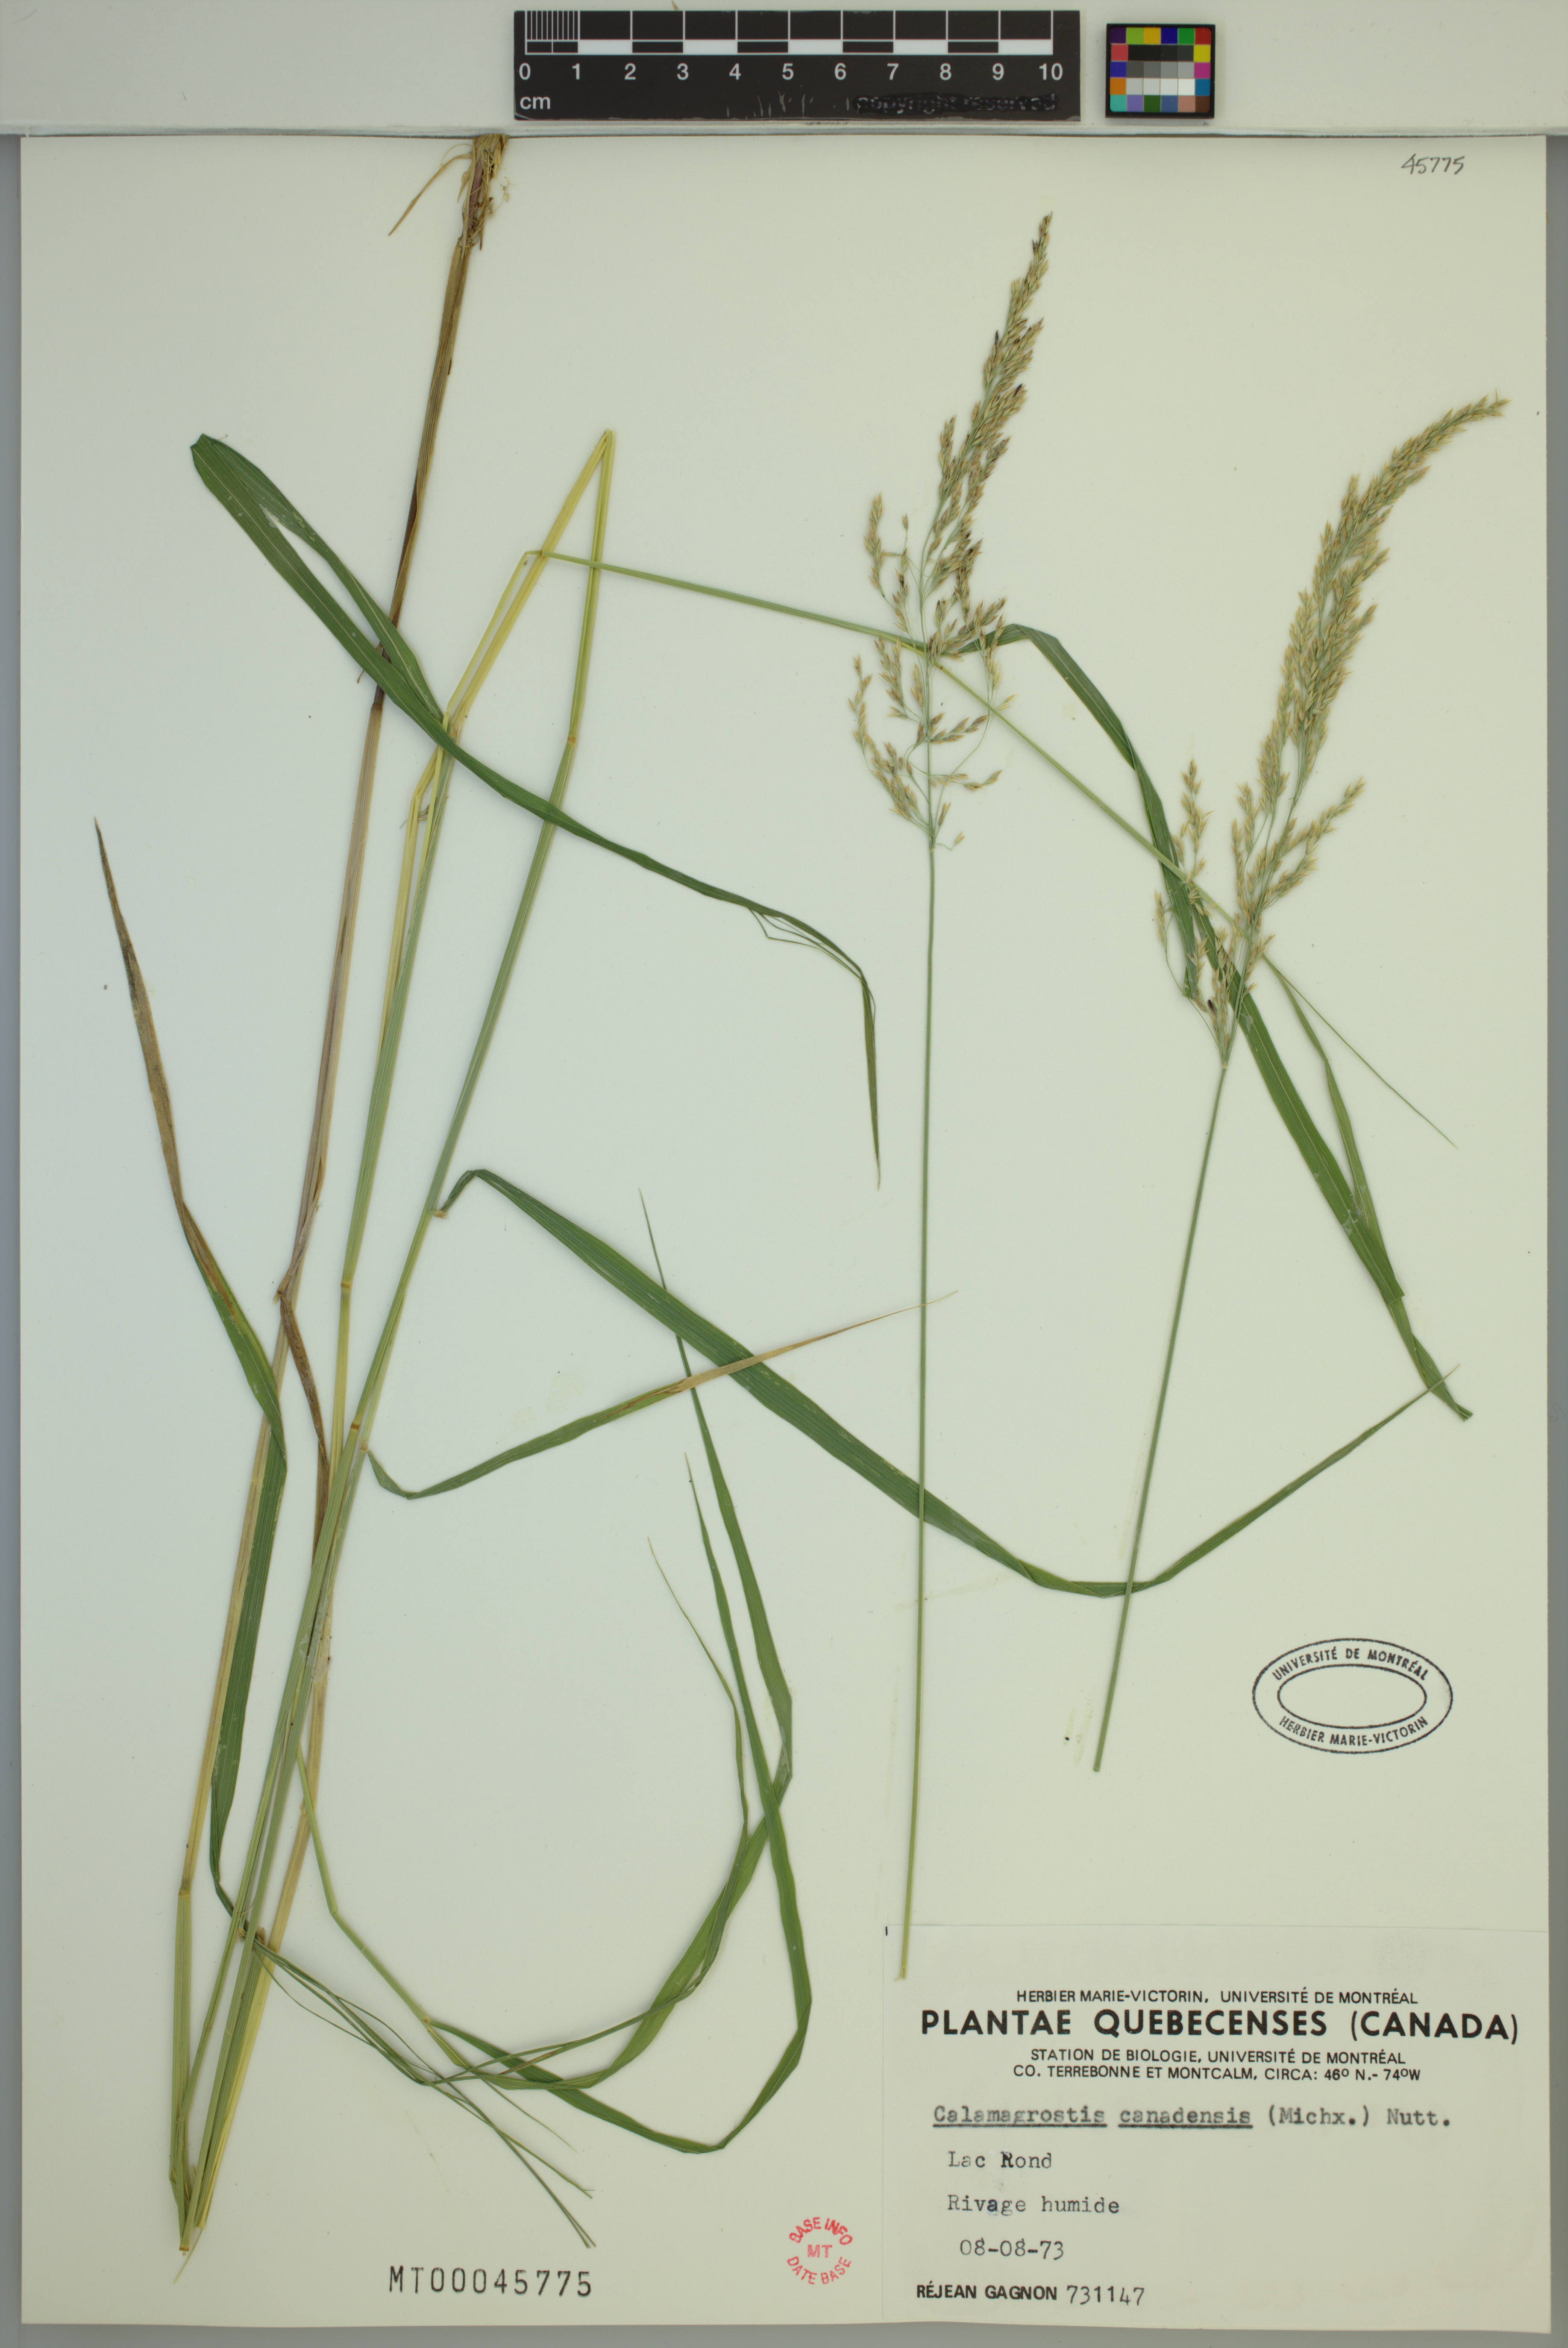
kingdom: Plantae
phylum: Tracheophyta
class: Liliopsida
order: Poales
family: Poaceae
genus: Calamagrostis
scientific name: Calamagrostis canadensis
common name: Canada bluejoint
